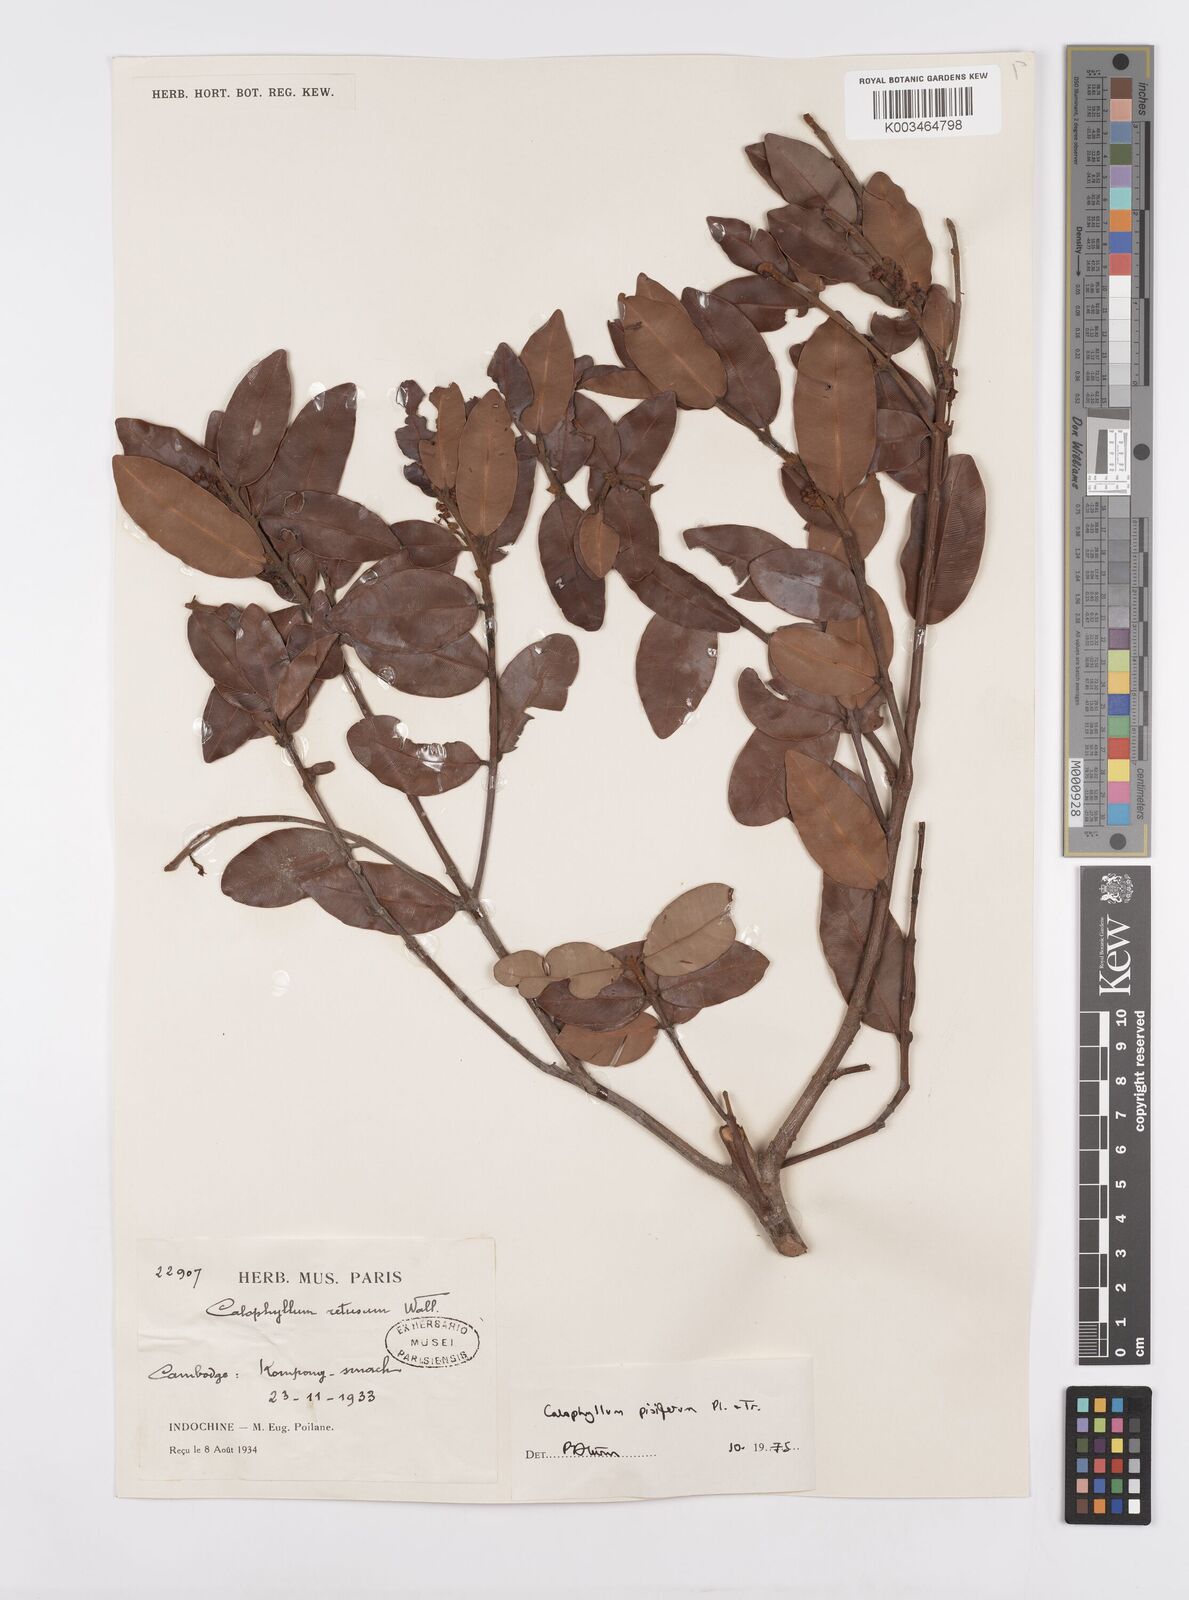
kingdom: Plantae
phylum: Tracheophyta
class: Magnoliopsida
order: Malpighiales
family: Calophyllaceae
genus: Calophyllum
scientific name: Calophyllum pisiferum
